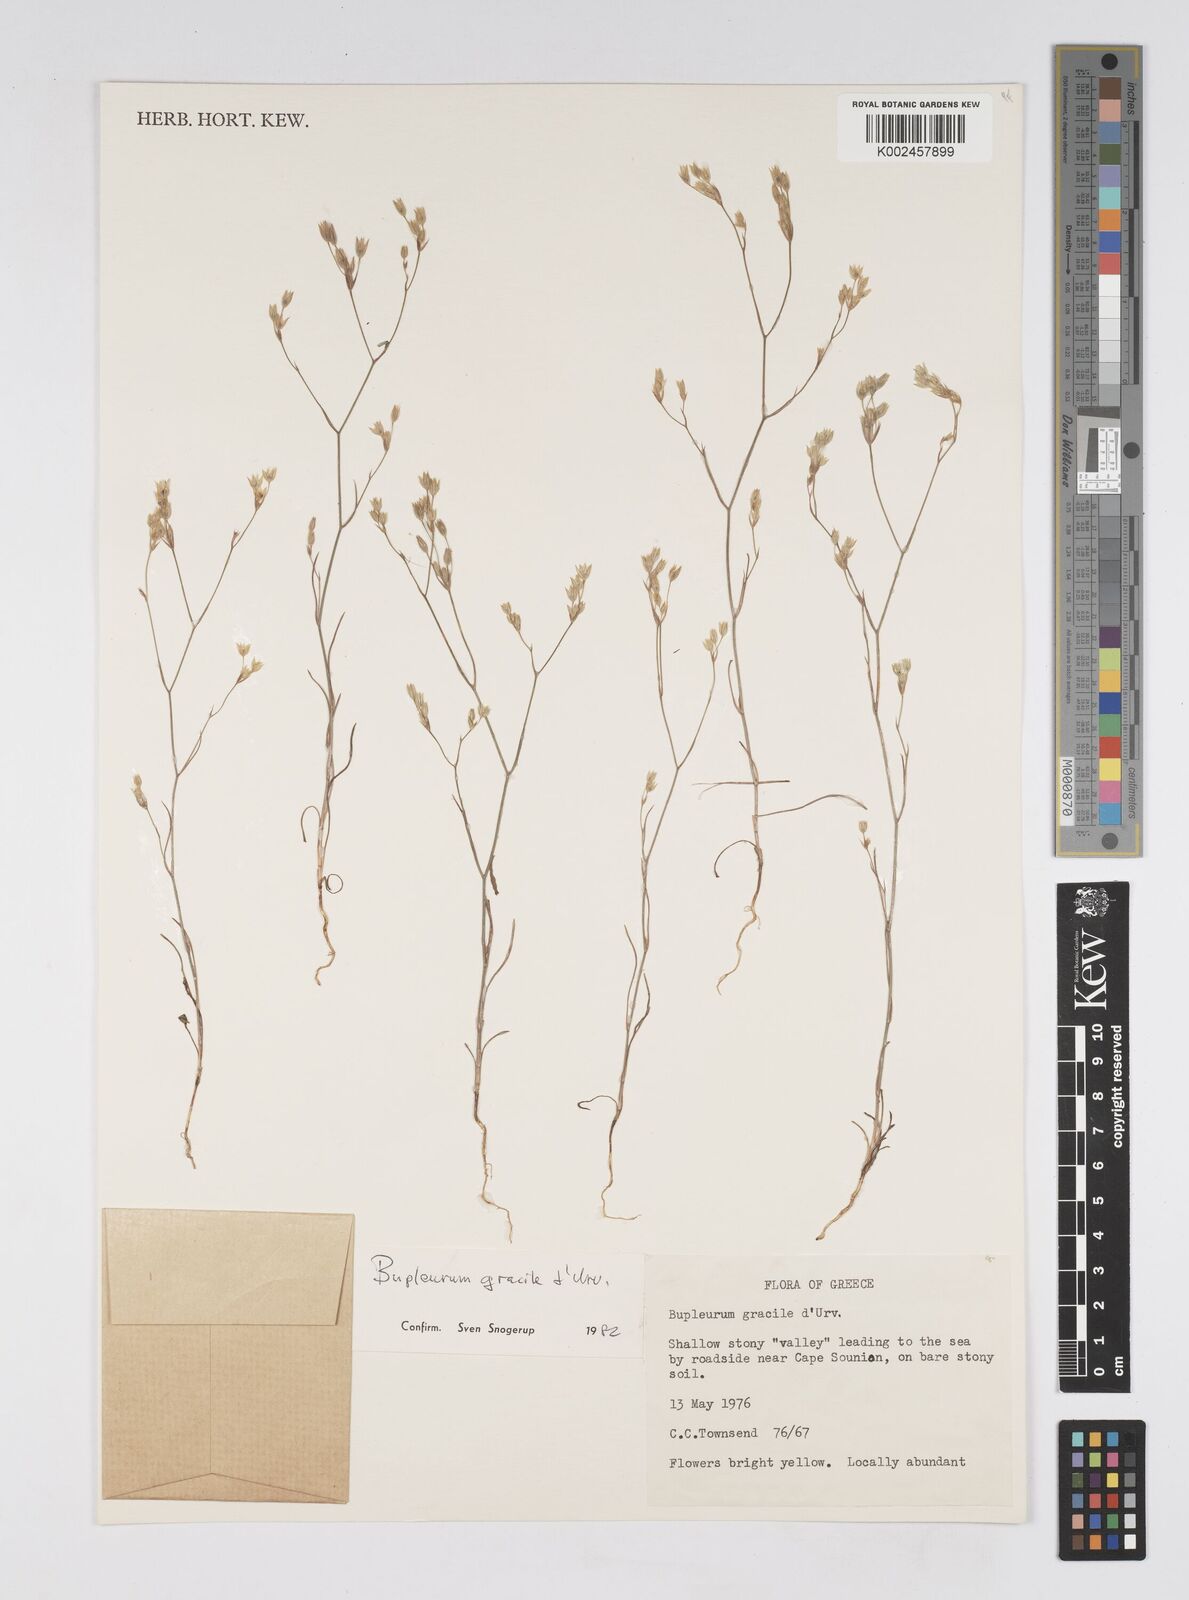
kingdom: Plantae
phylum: Tracheophyta
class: Magnoliopsida
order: Apiales
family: Apiaceae
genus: Bupleurum
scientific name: Bupleurum gracile
